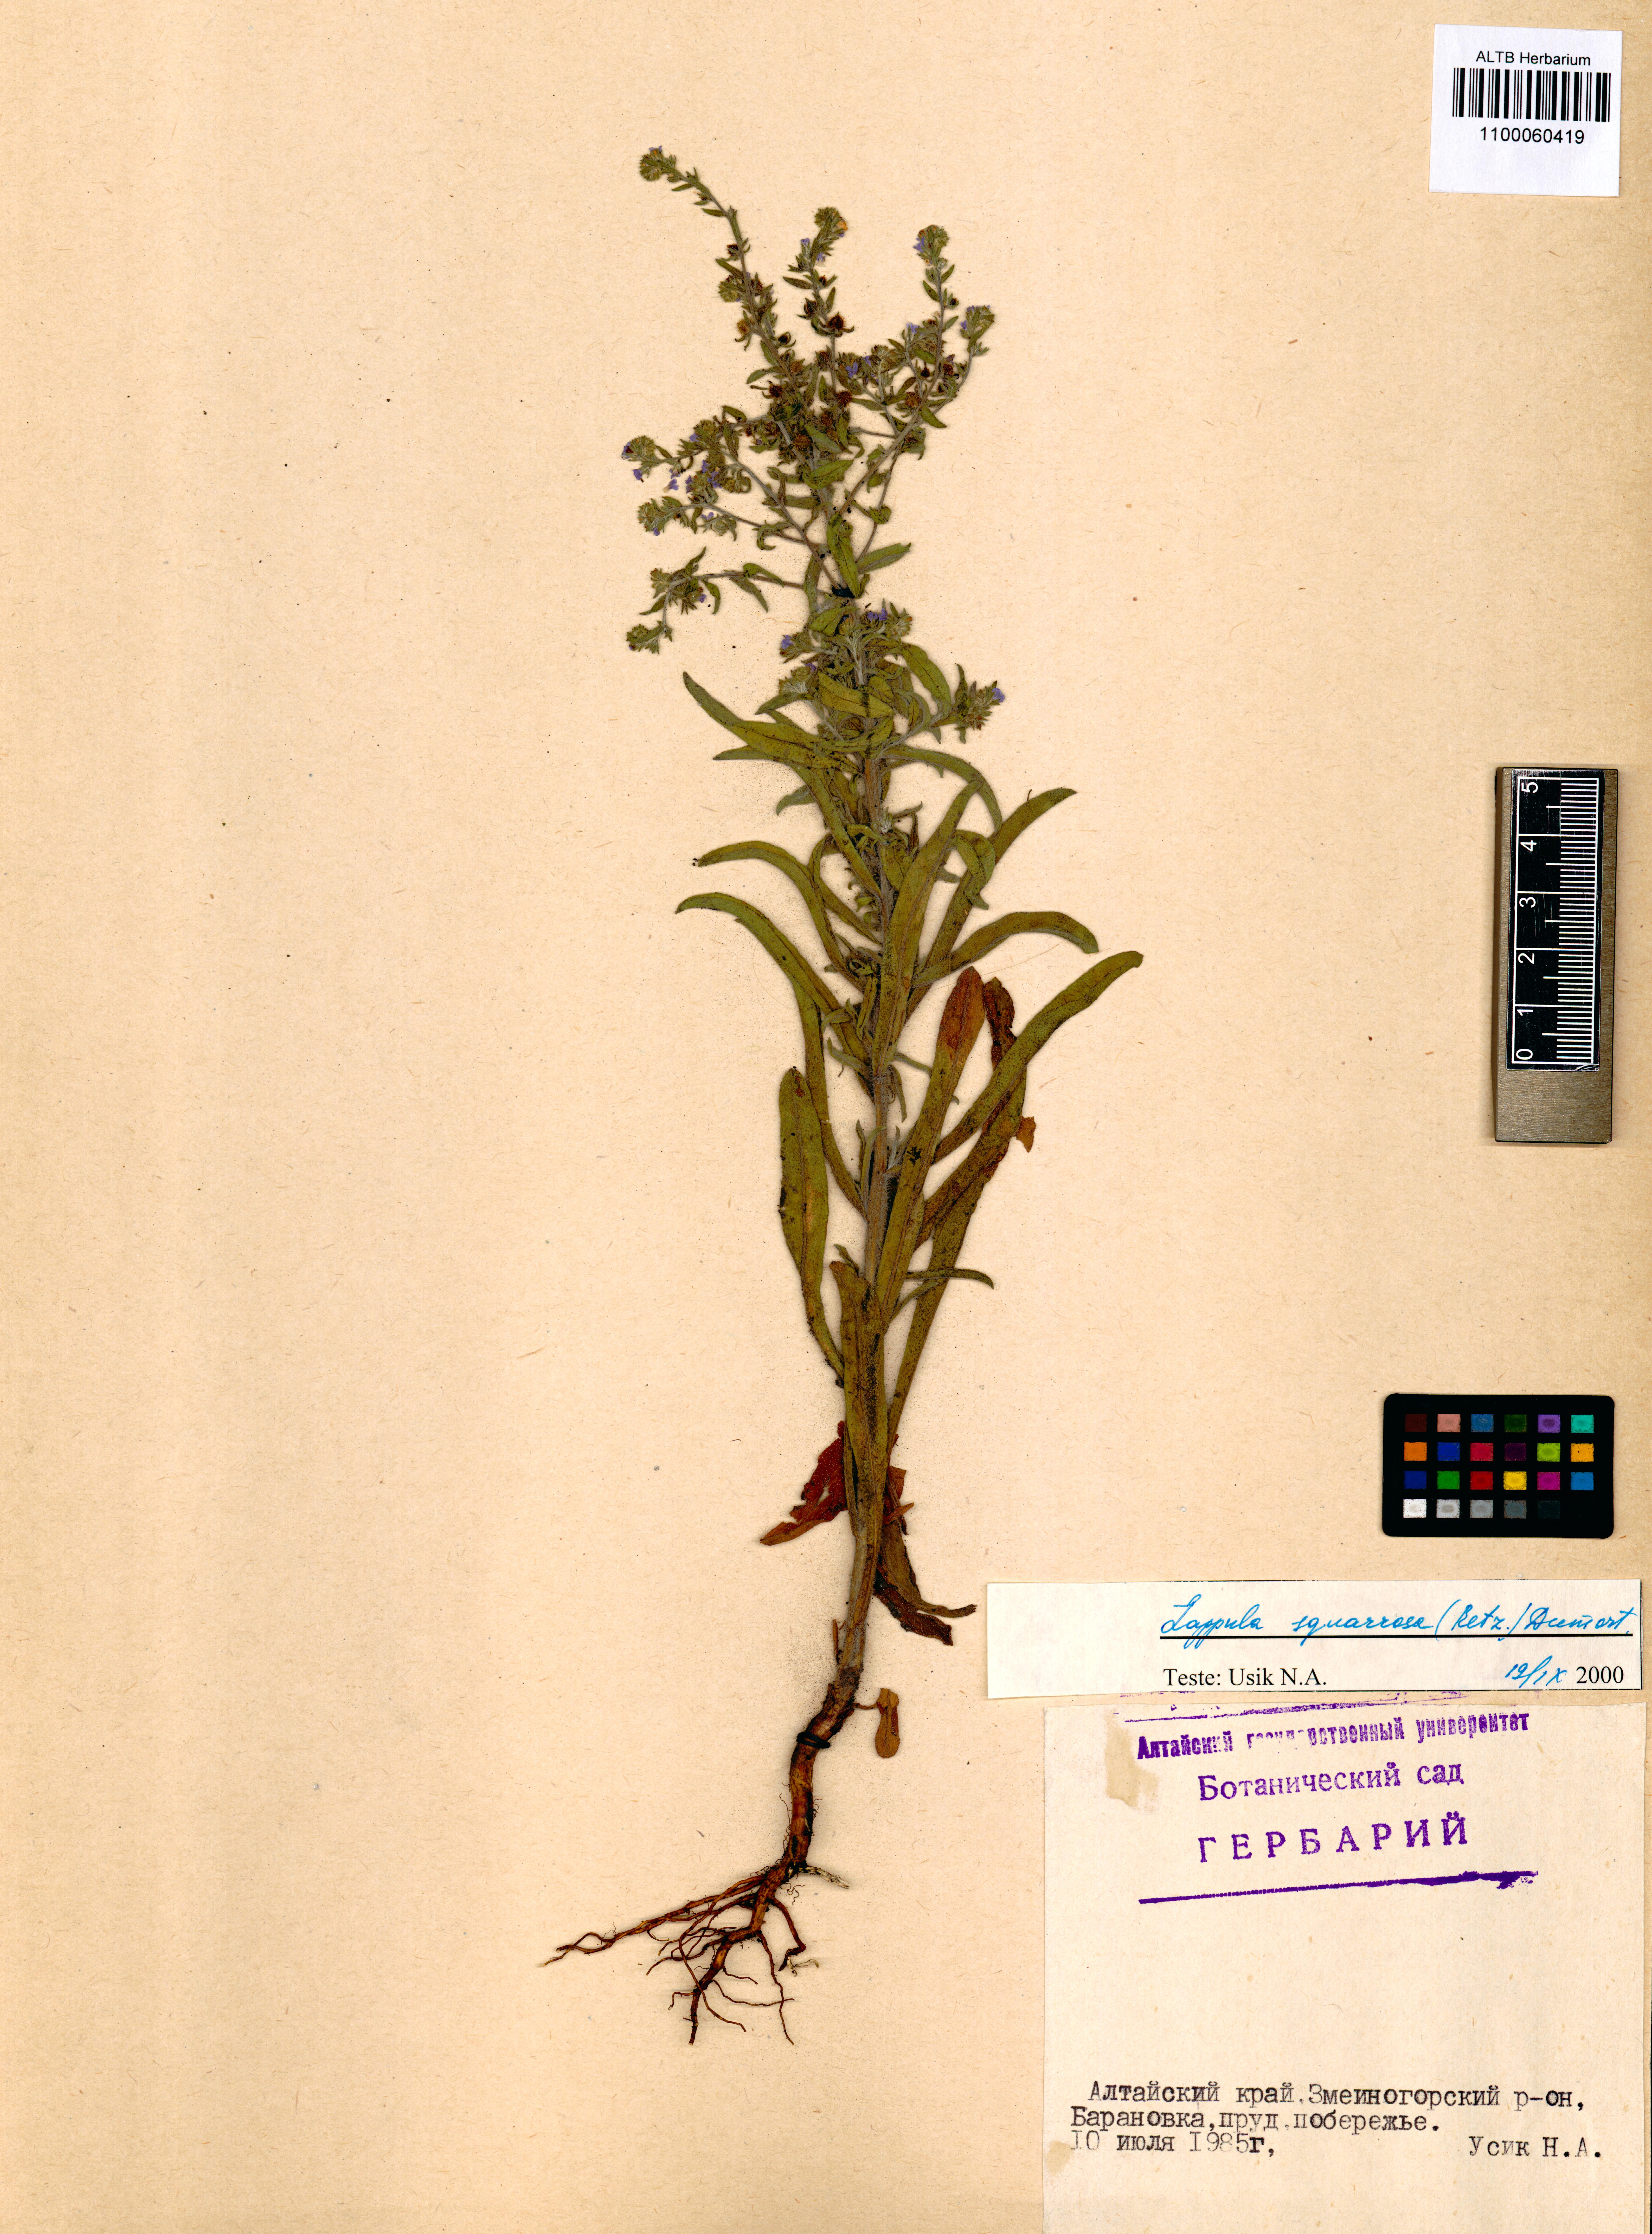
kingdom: Plantae
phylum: Tracheophyta
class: Magnoliopsida
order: Boraginales
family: Boraginaceae
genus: Lappula
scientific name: Lappula squarrosa
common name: European stickseed
